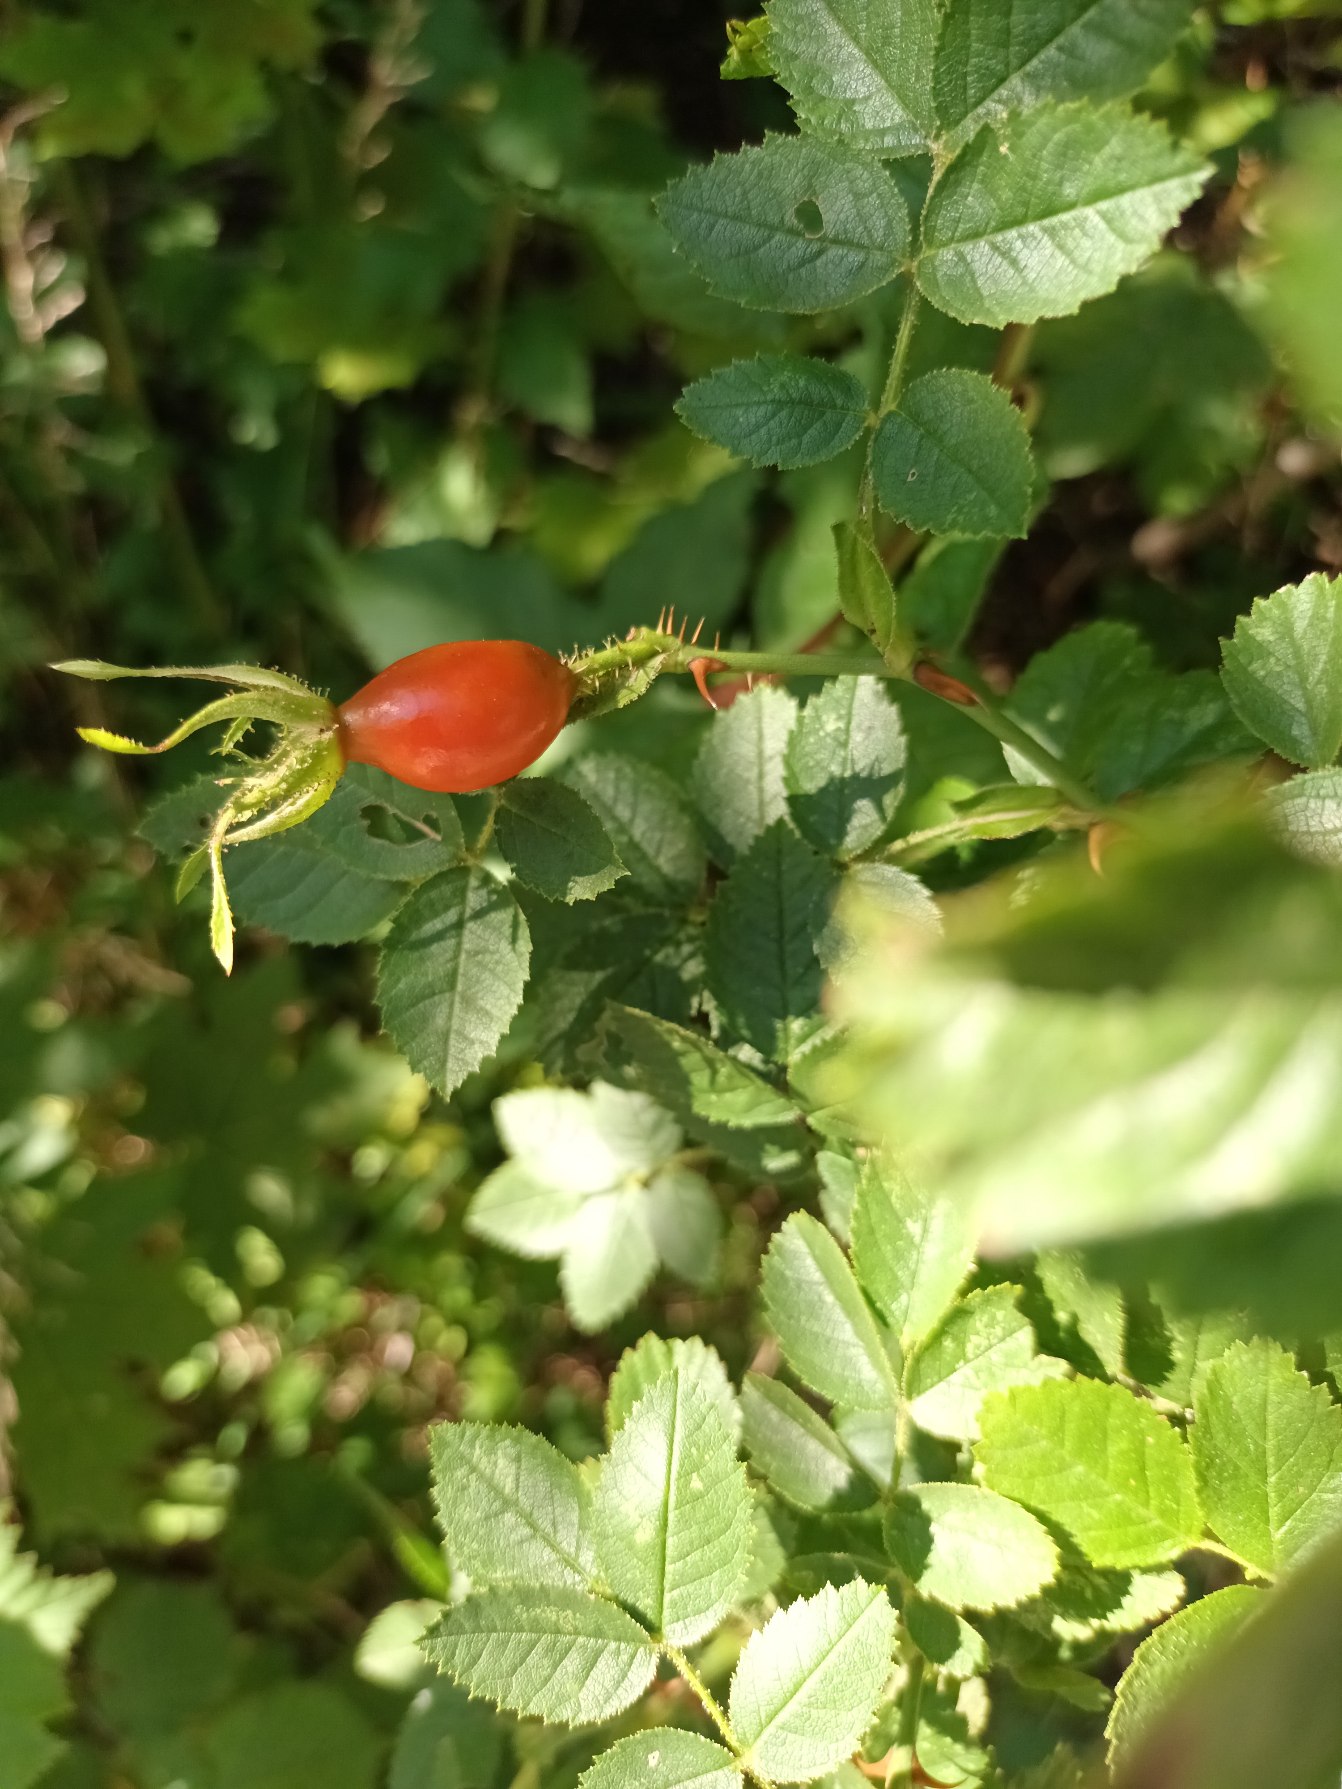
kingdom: Plantae
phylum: Tracheophyta
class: Magnoliopsida
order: Rosales
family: Rosaceae
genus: Rosa
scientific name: Rosa rubiginosa
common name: Æble-rose
